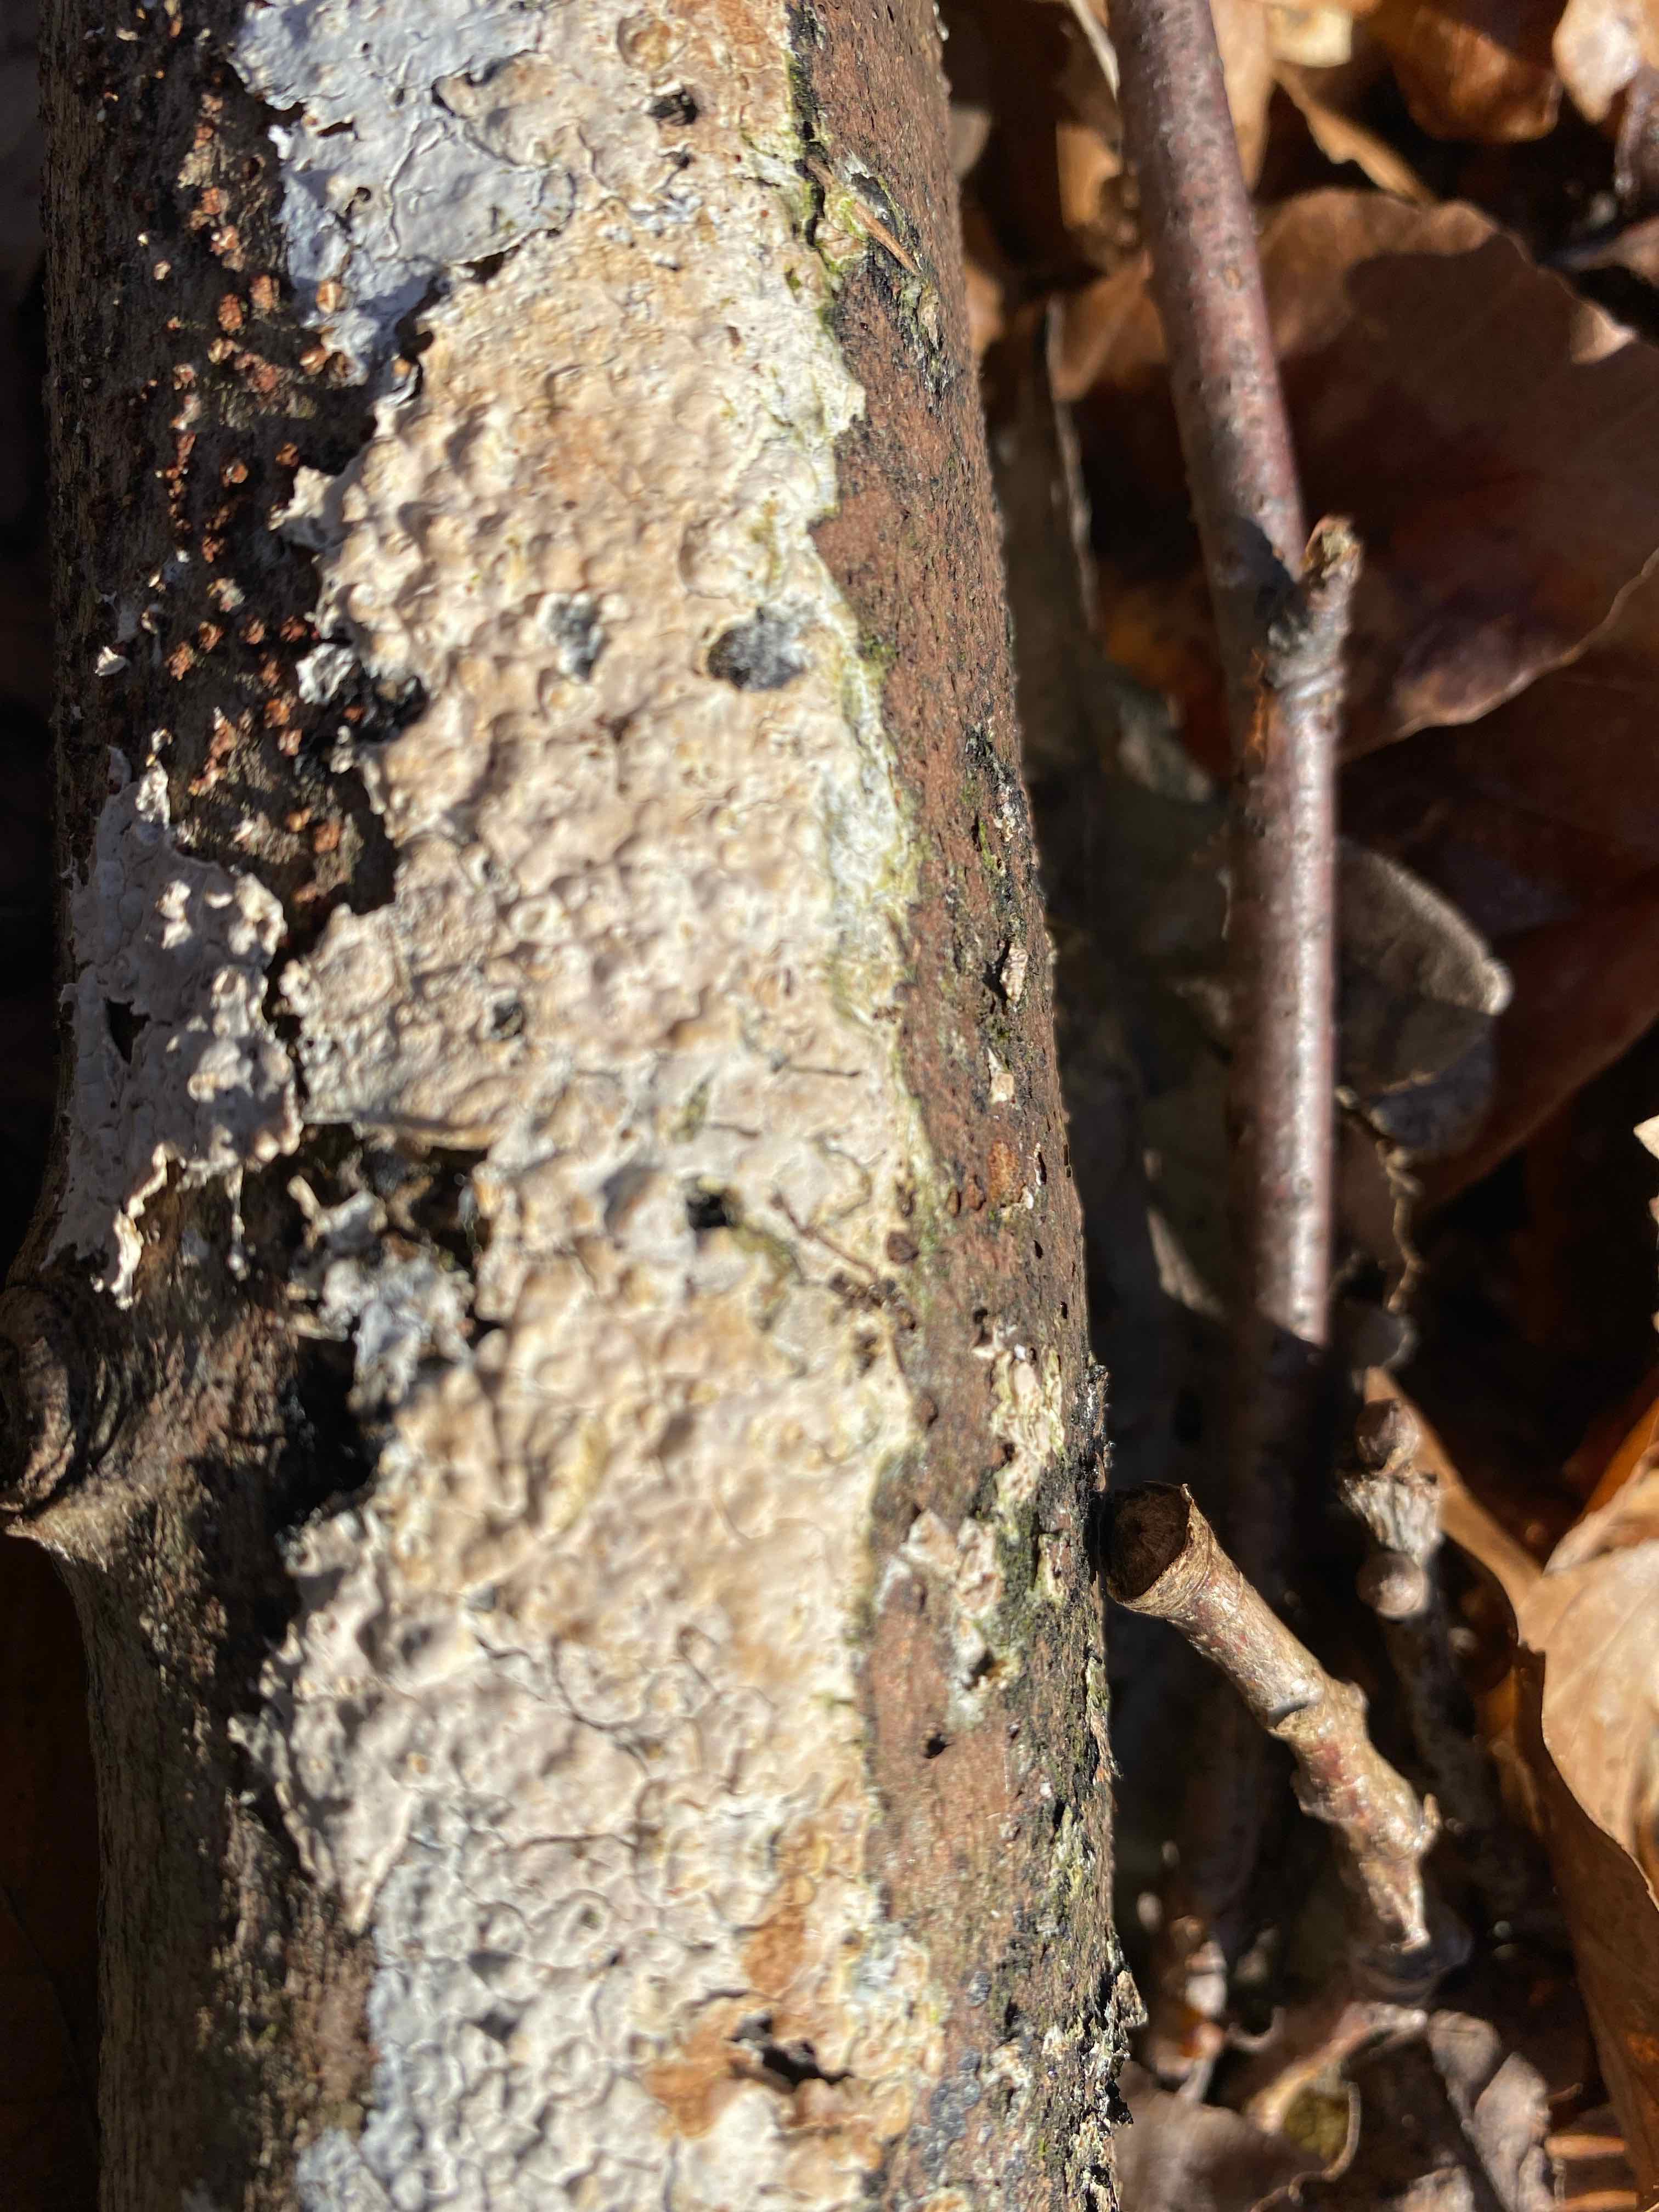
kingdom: Fungi
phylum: Basidiomycota
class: Agaricomycetes
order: Agaricales
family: Physalacriaceae
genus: Cylindrobasidium
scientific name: Cylindrobasidium evolvens
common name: sprækkehinde
